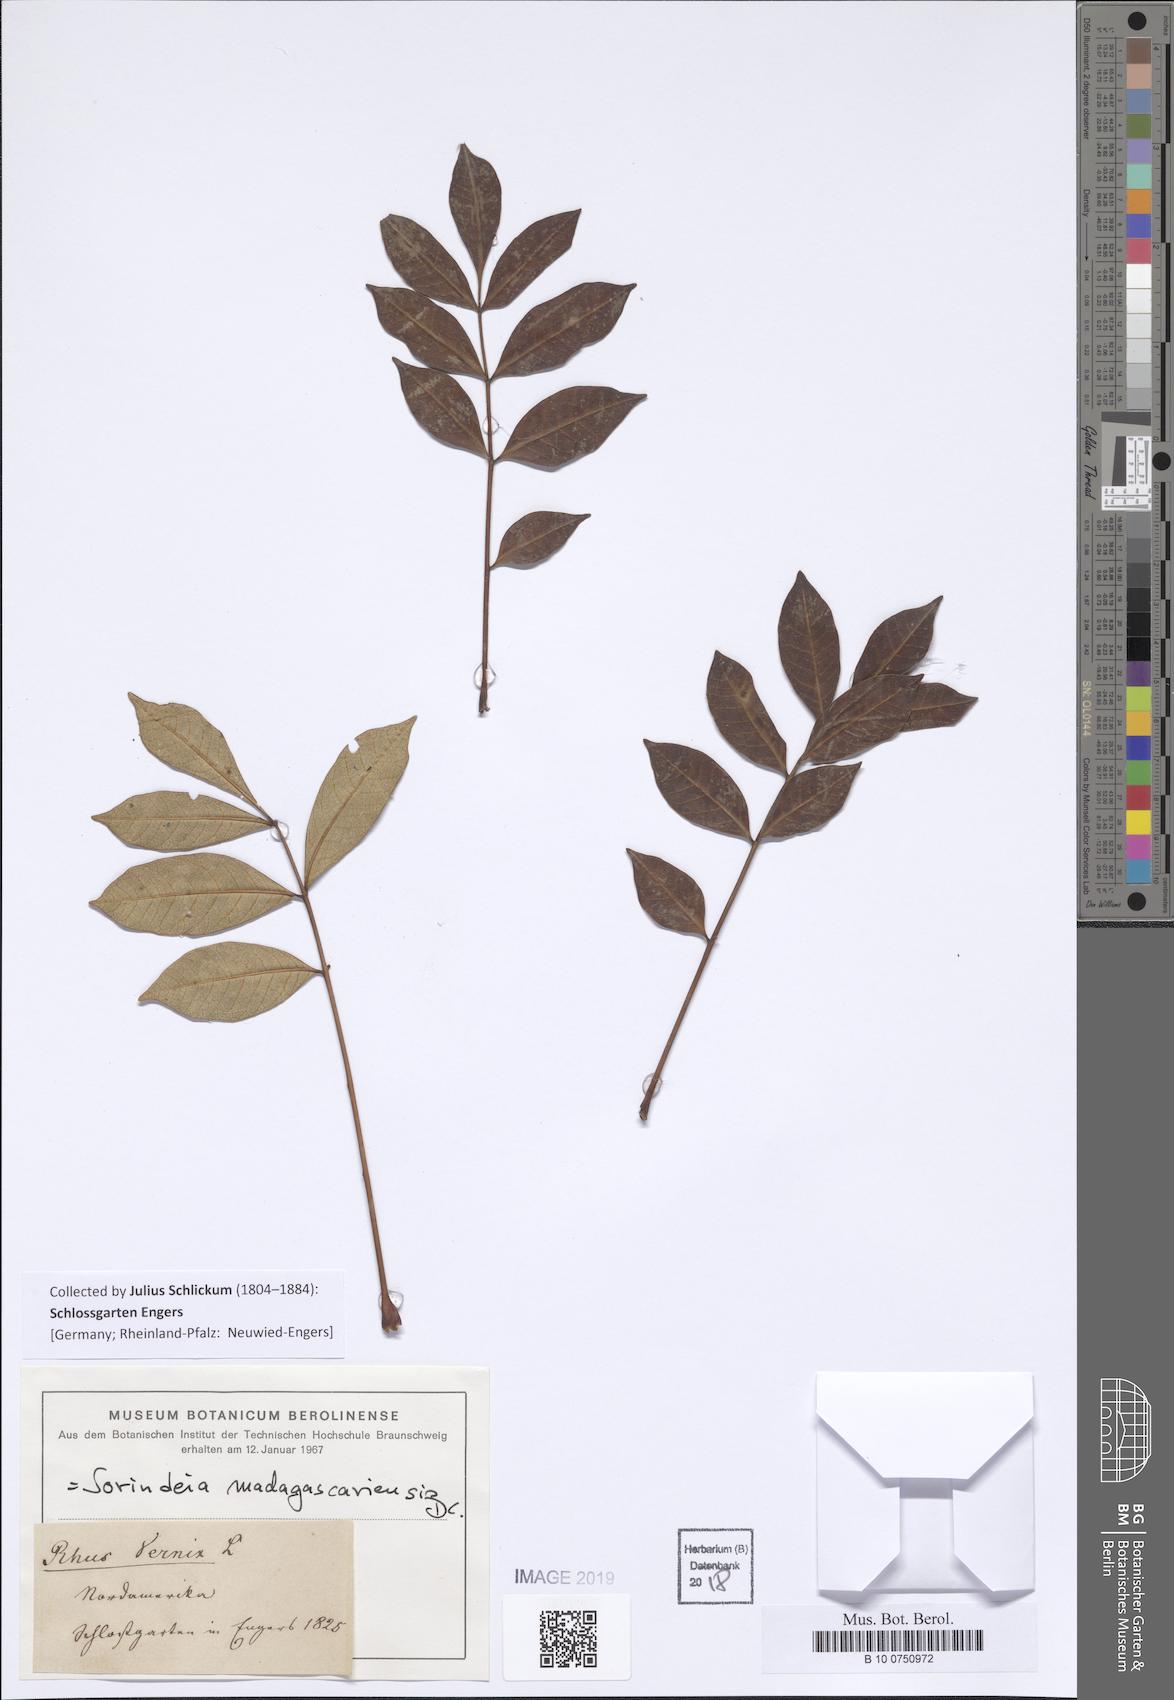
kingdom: Plantae
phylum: Tracheophyta
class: Magnoliopsida
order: Sapindales
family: Anacardiaceae
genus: Sorindeia
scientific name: Sorindeia madagascariensis
